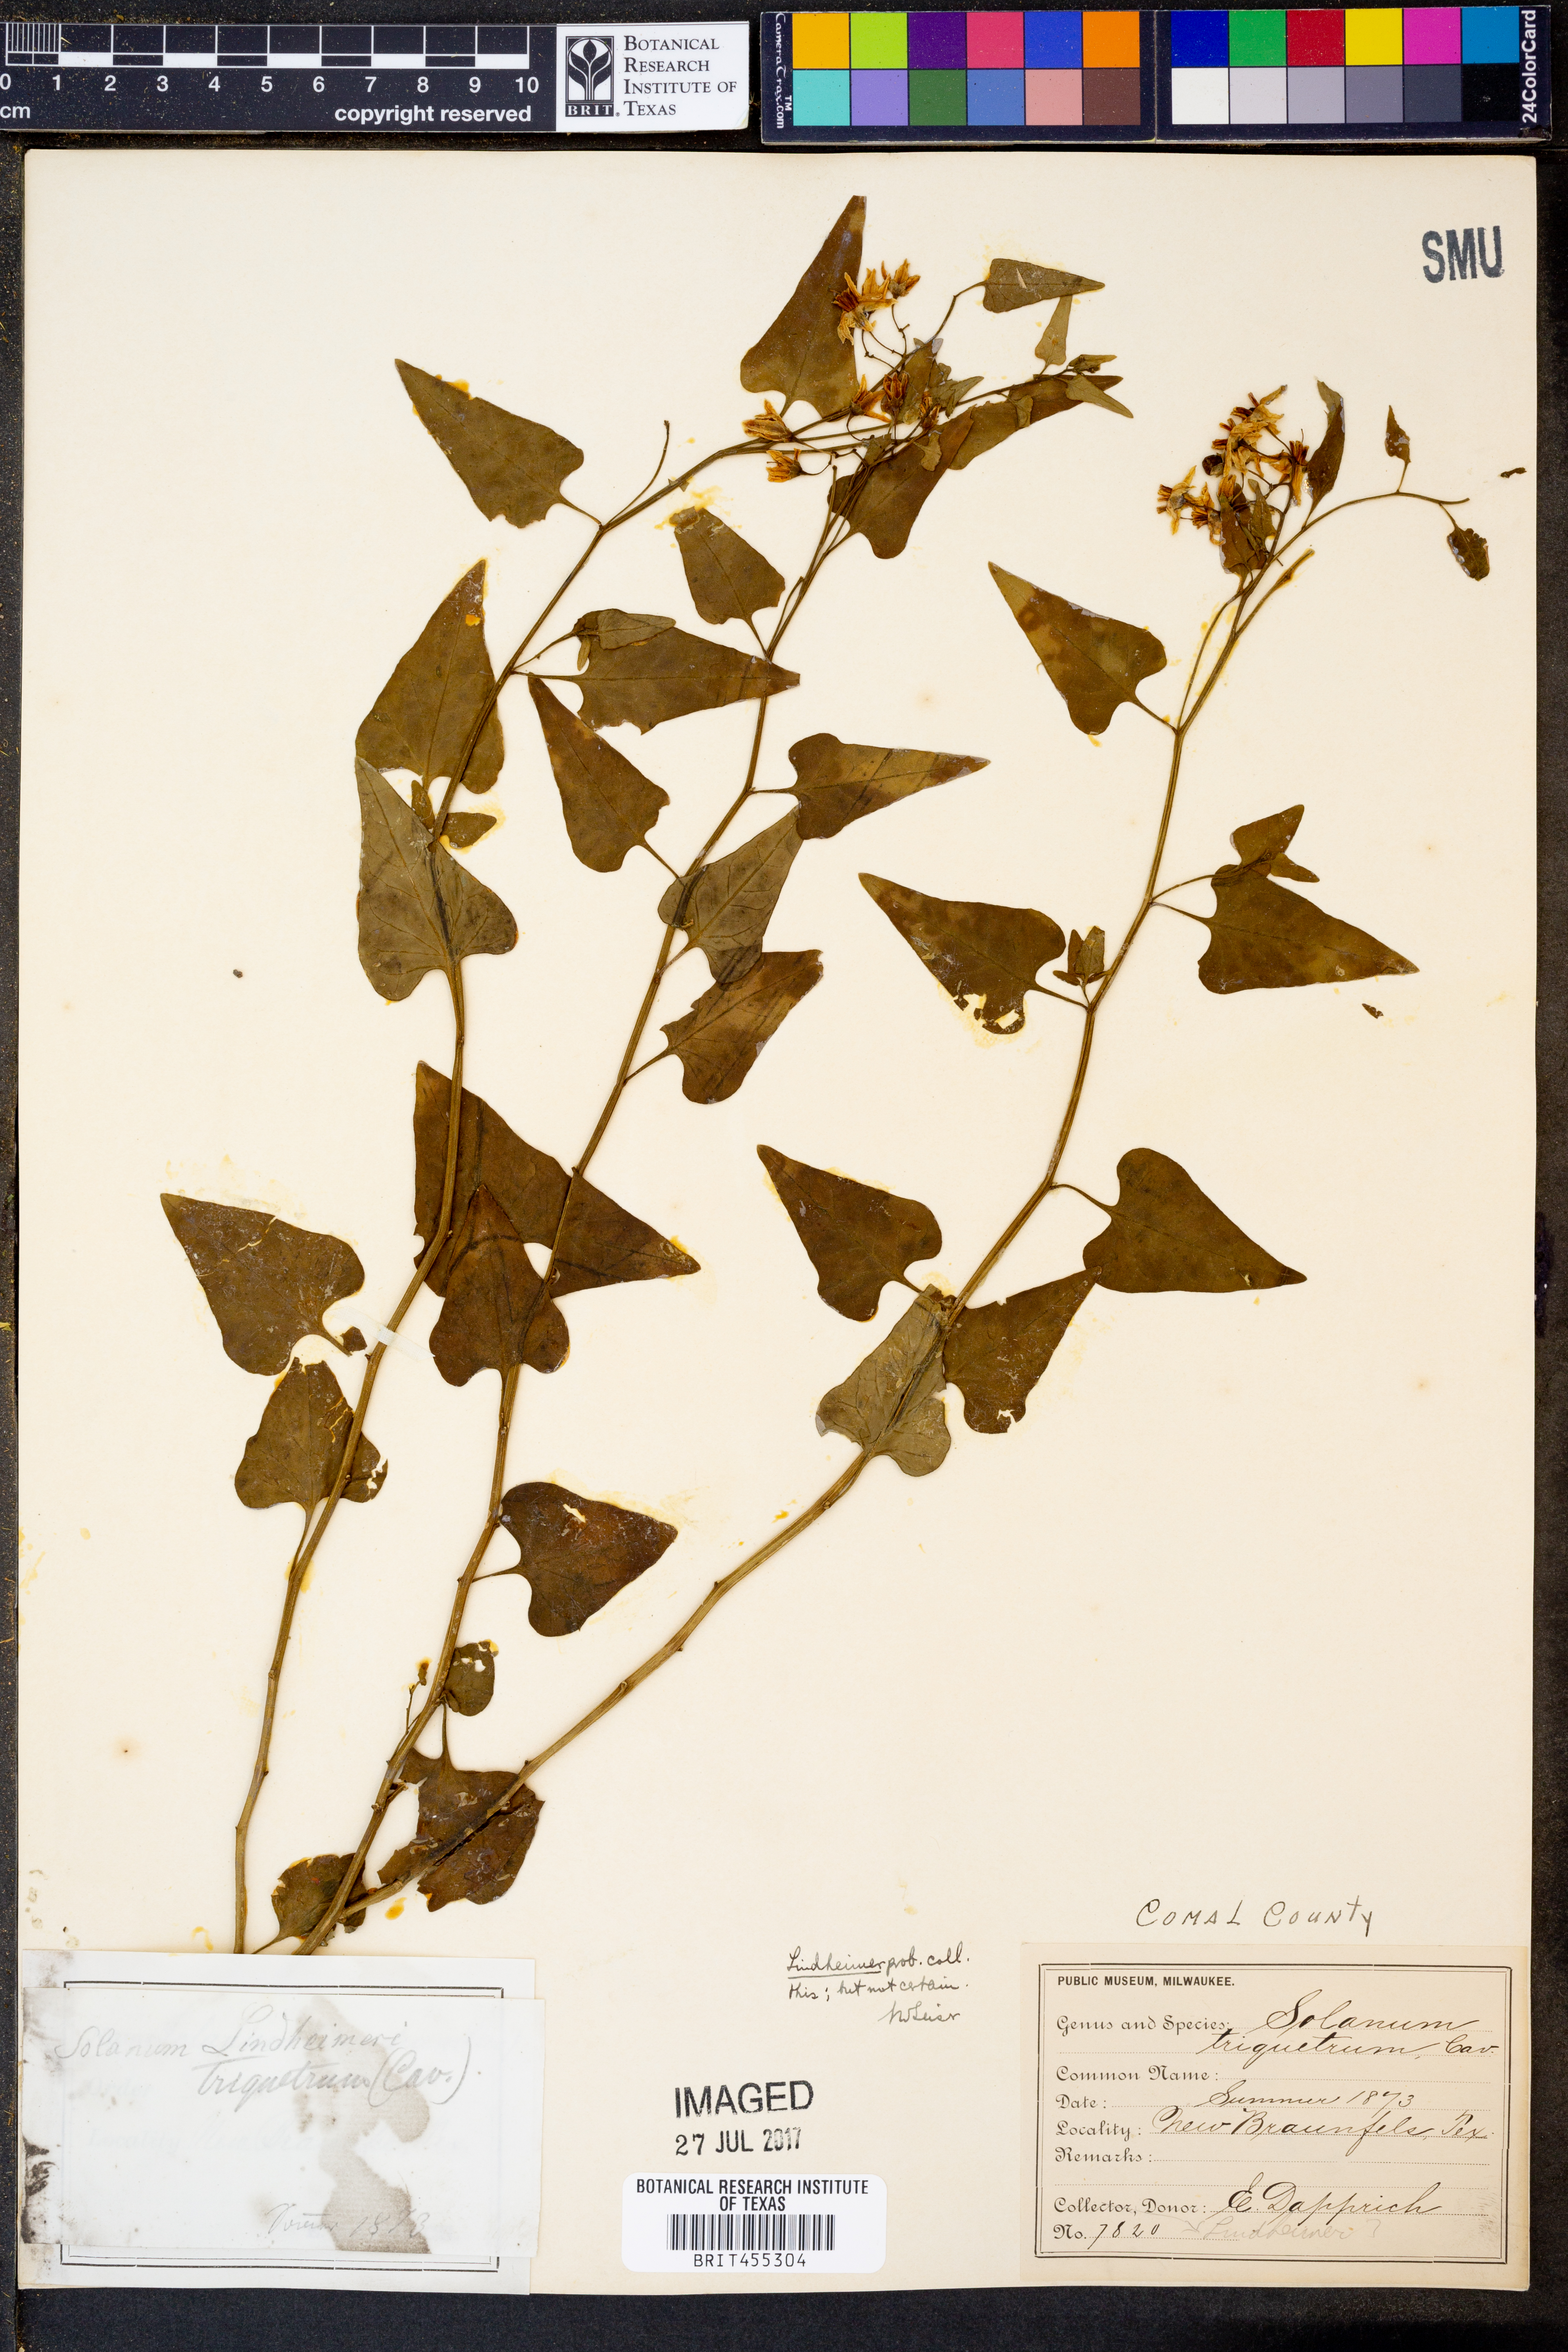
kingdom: Plantae
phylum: Tracheophyta
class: Magnoliopsida
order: Solanales
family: Solanaceae
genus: Solanum
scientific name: Solanum triquetrum
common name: Texas nightshade
